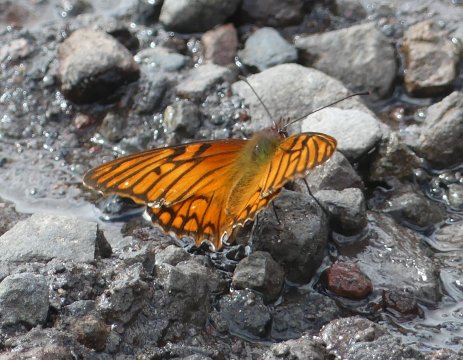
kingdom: Animalia
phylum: Arthropoda
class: Insecta
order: Lepidoptera
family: Nymphalidae
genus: Dione
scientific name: Dione glycera
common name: Andean Silverspot
